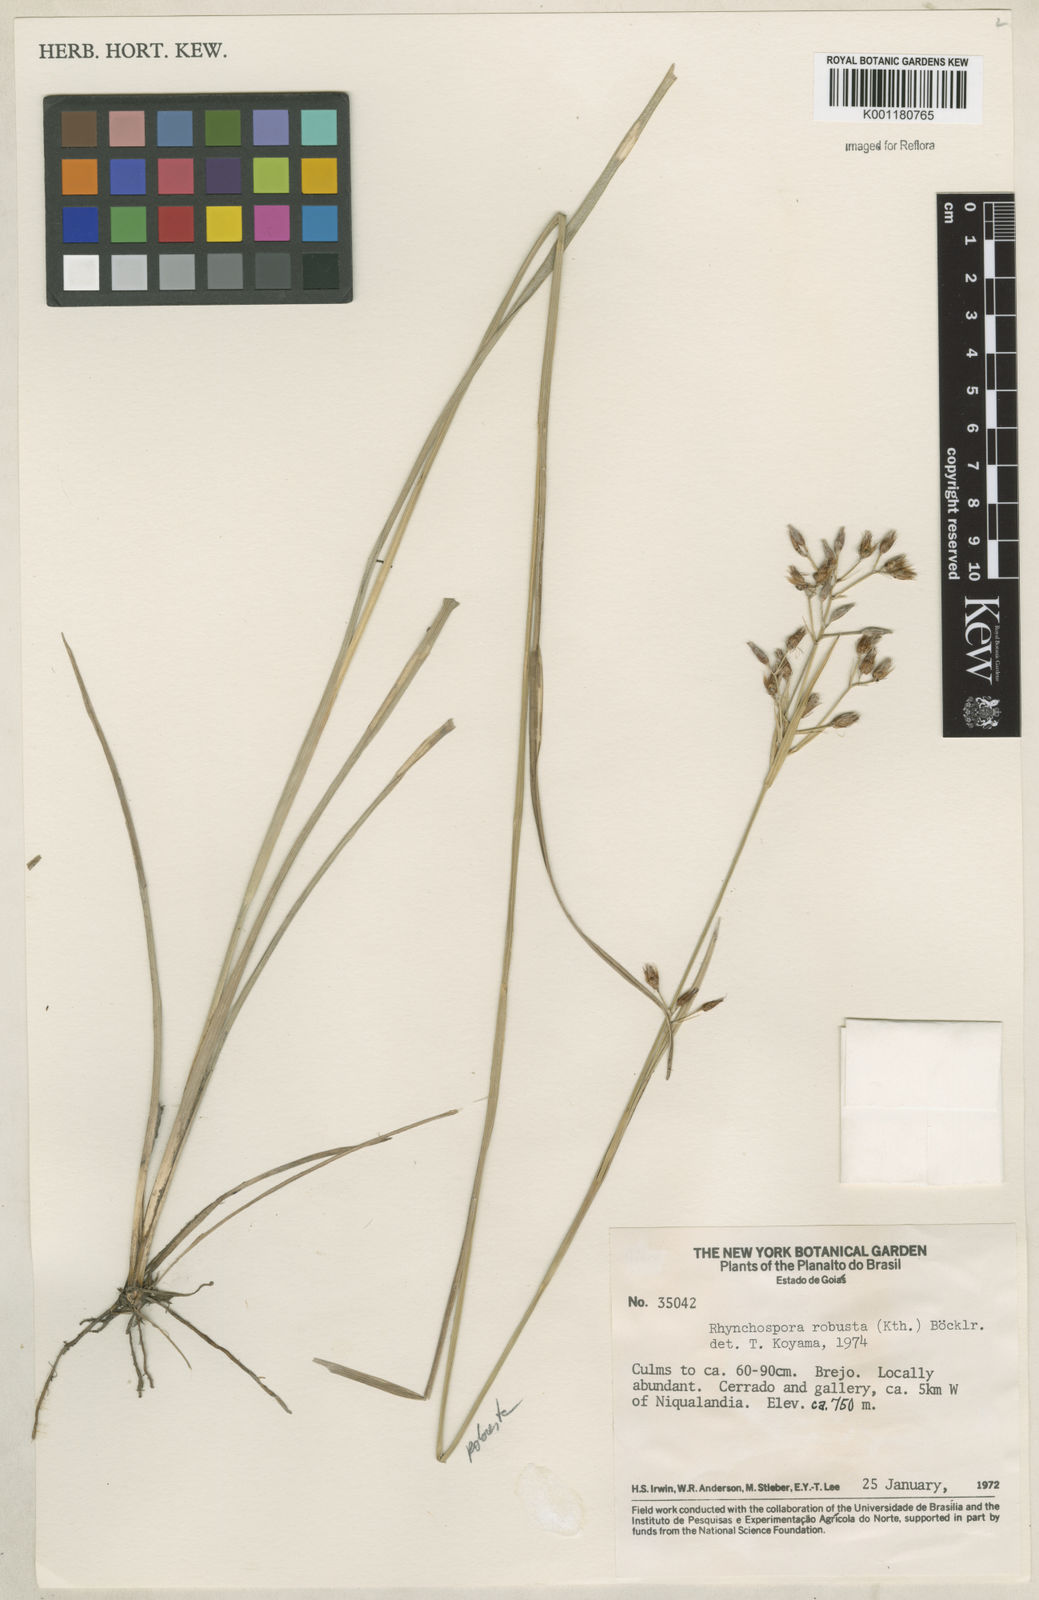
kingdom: Plantae
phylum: Tracheophyta
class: Liliopsida
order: Poales
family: Cyperaceae
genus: Rhynchospora
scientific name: Rhynchospora robusta
